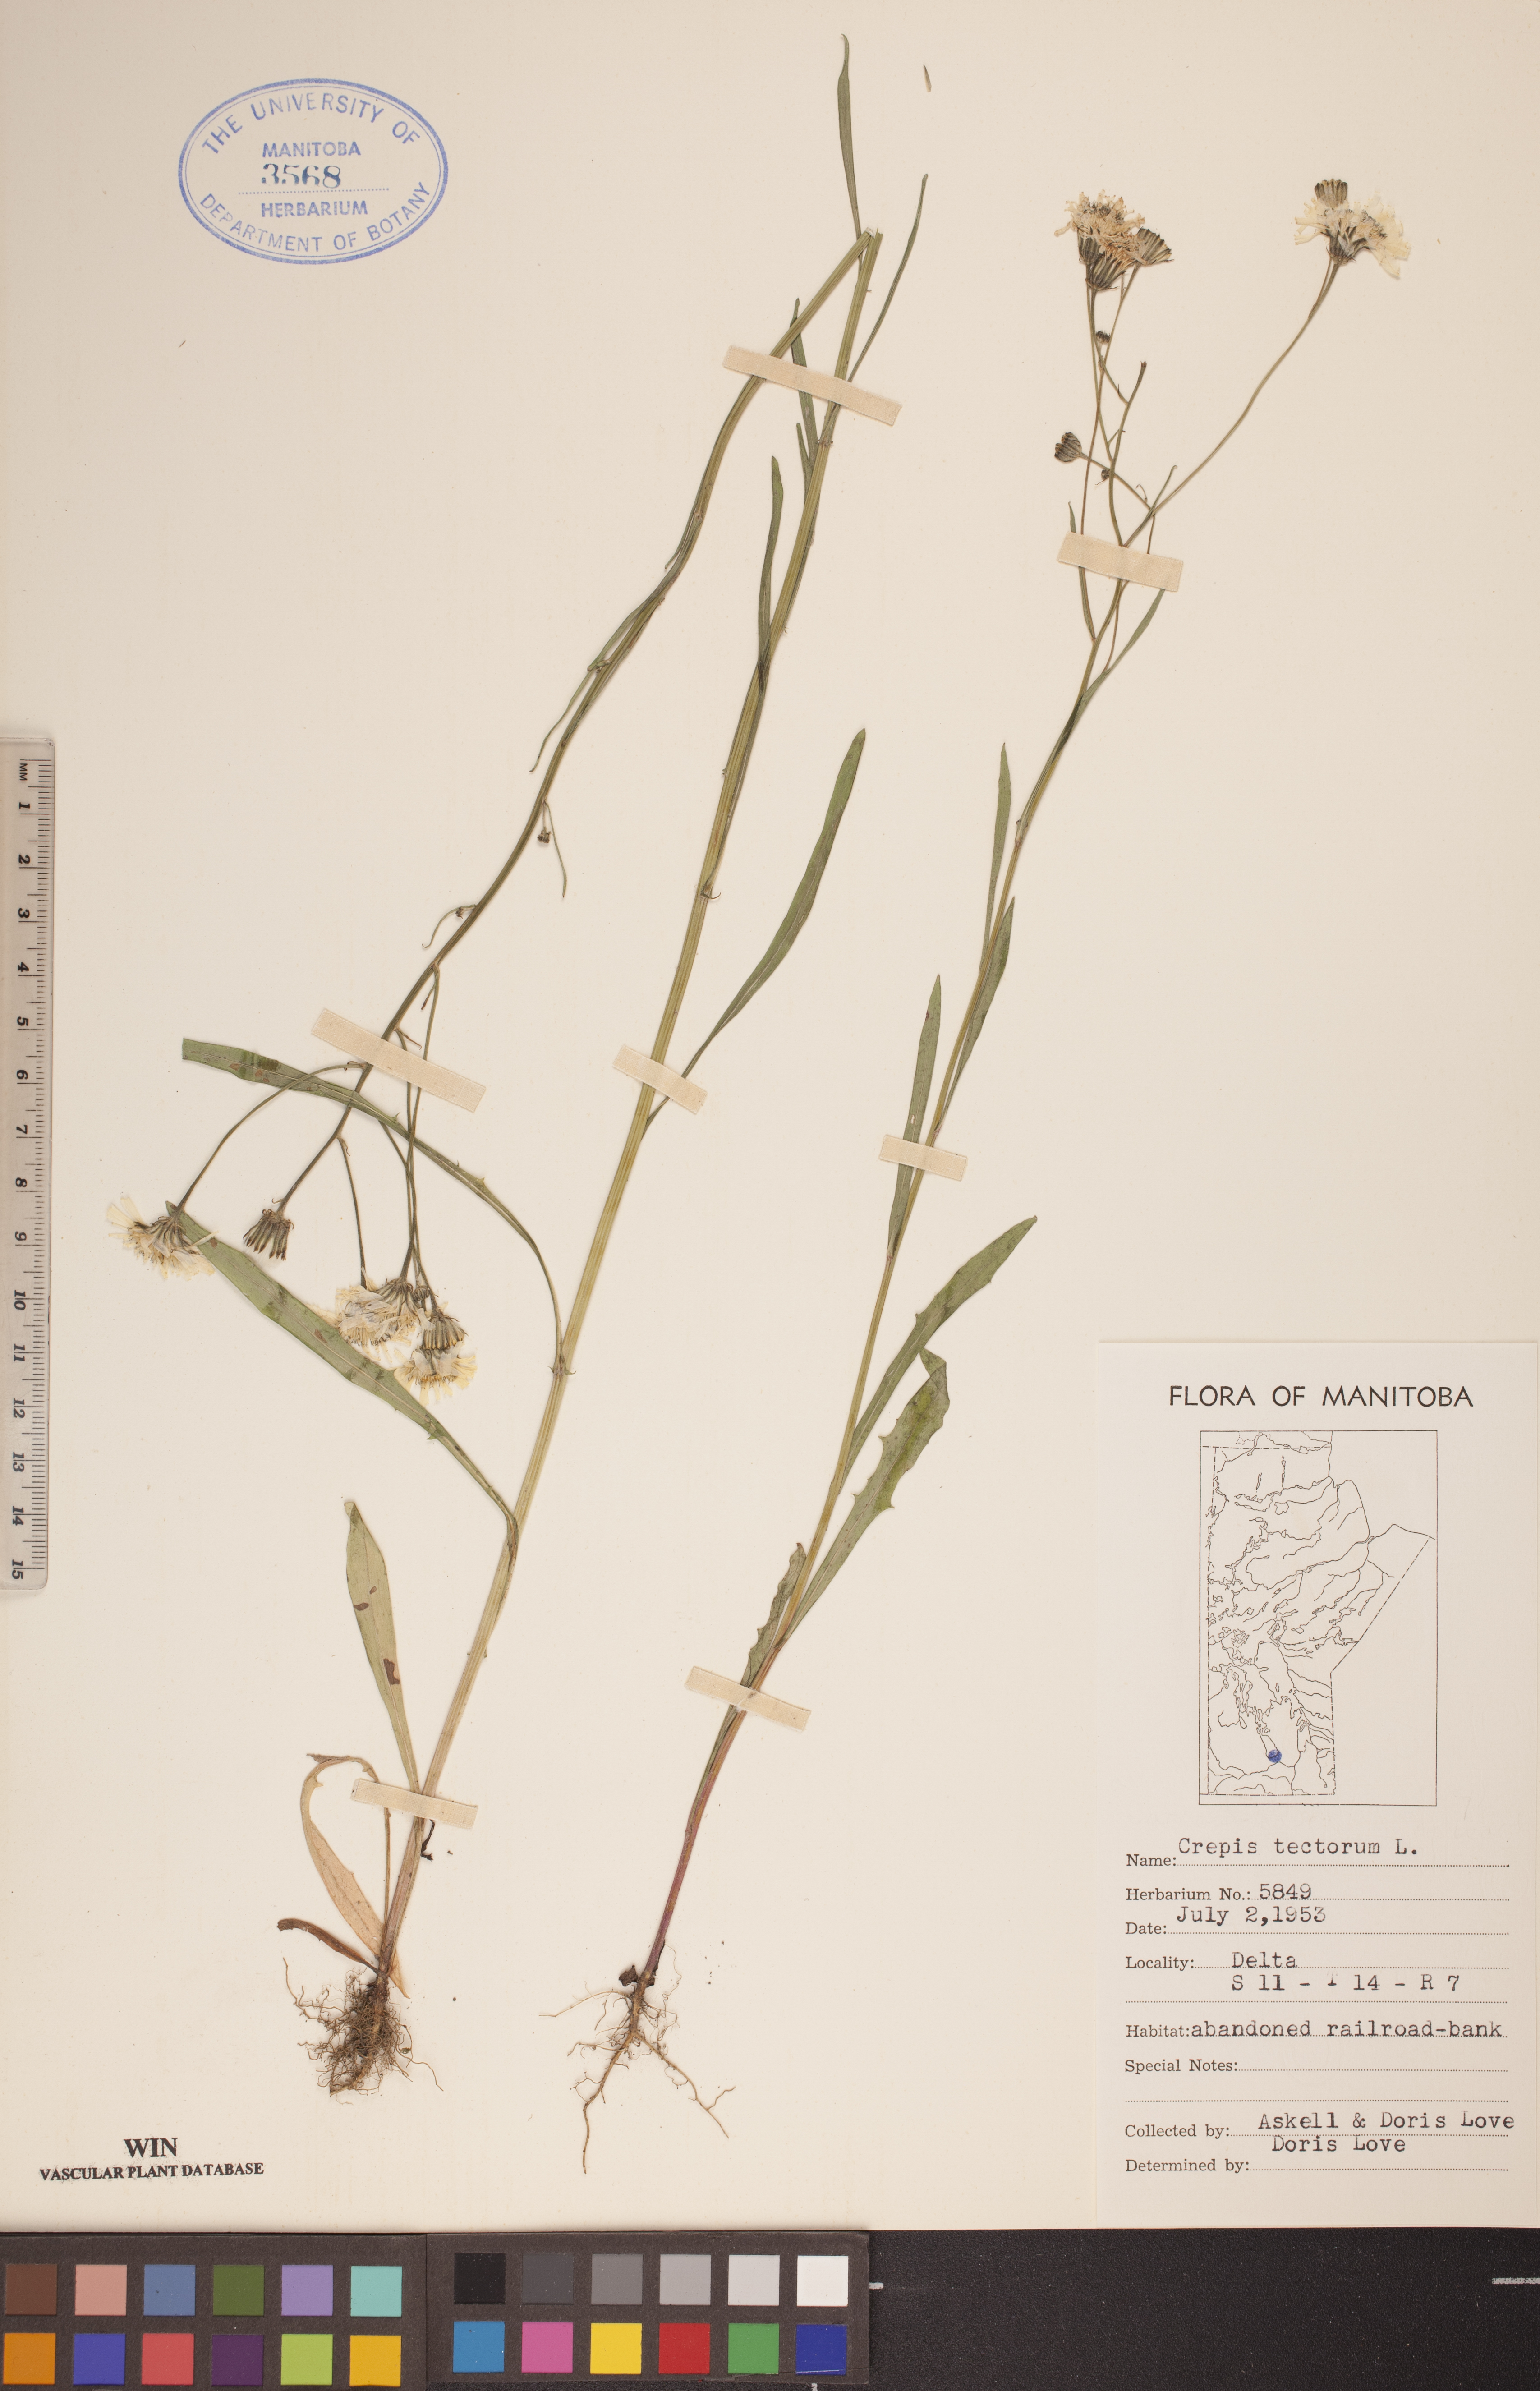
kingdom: Plantae
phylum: Tracheophyta
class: Magnoliopsida
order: Asterales
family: Asteraceae
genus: Crepis
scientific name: Crepis tectorum
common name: Narrow-leaved hawk's-beard
